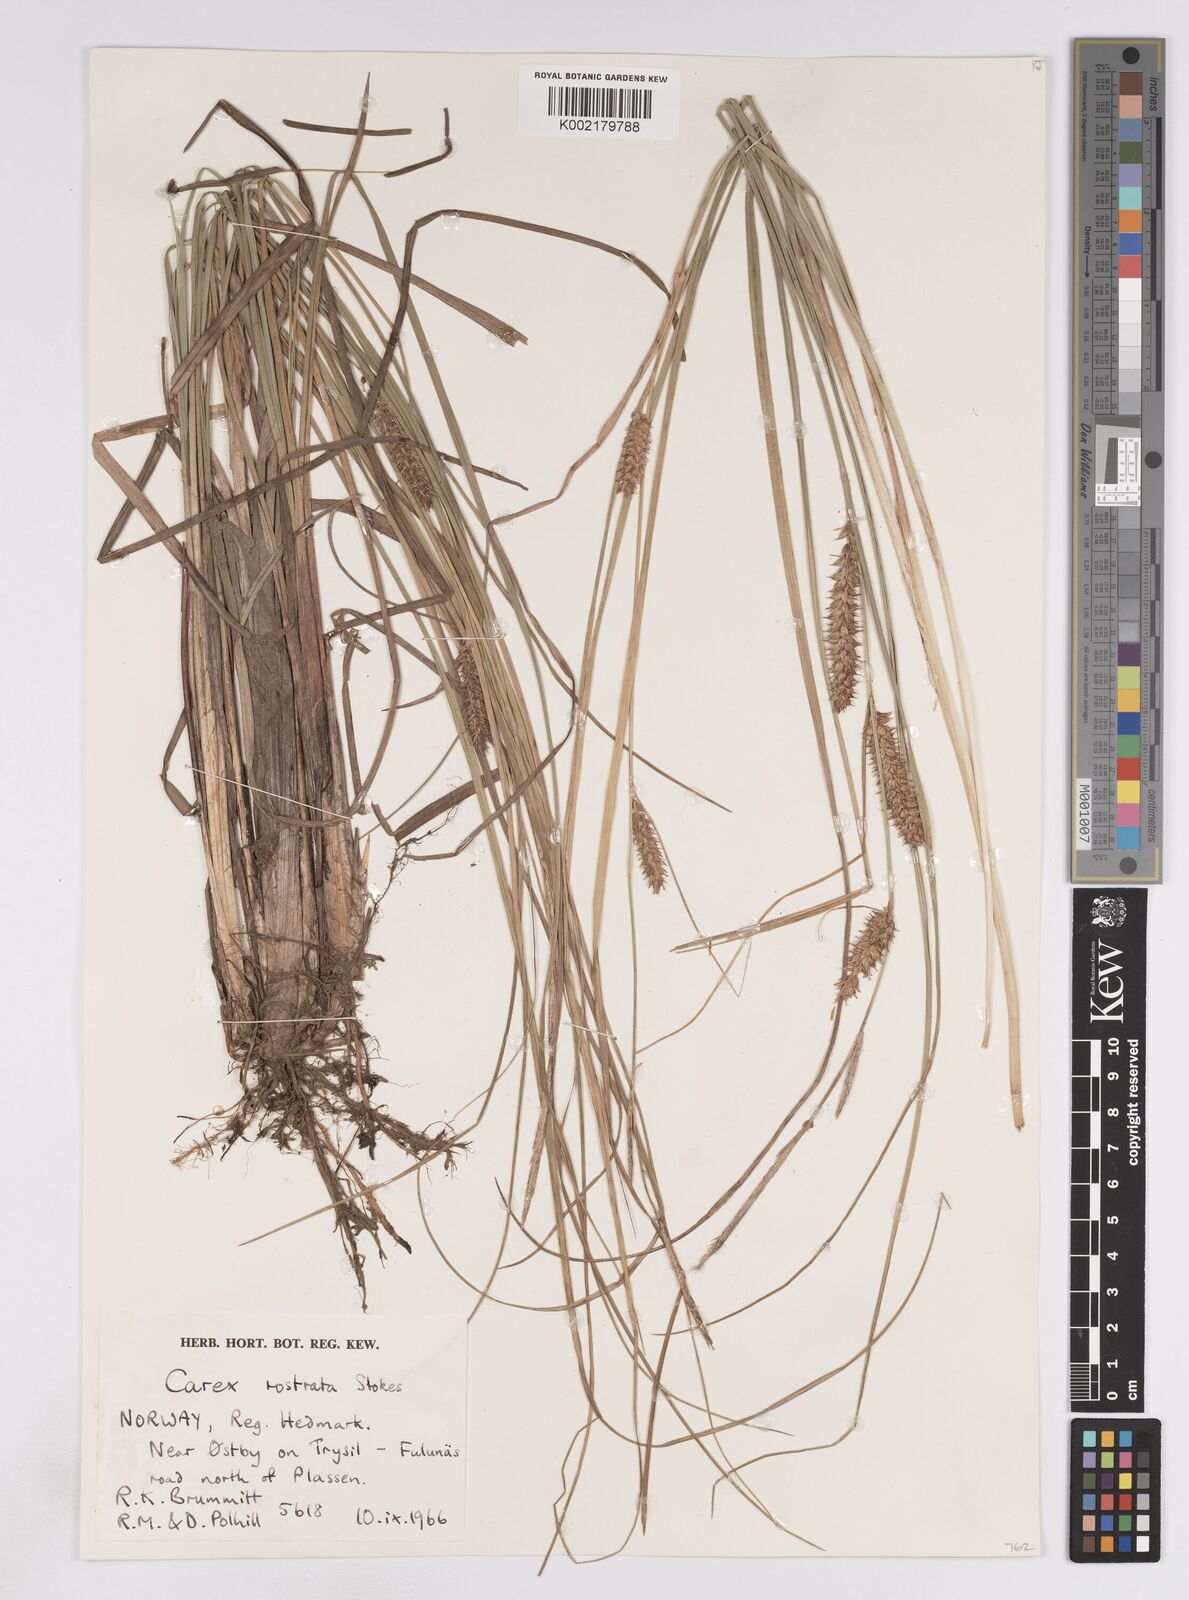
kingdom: Plantae
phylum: Tracheophyta
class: Liliopsida
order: Poales
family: Cyperaceae
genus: Carex
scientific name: Carex rostrata
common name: Bottle sedge
